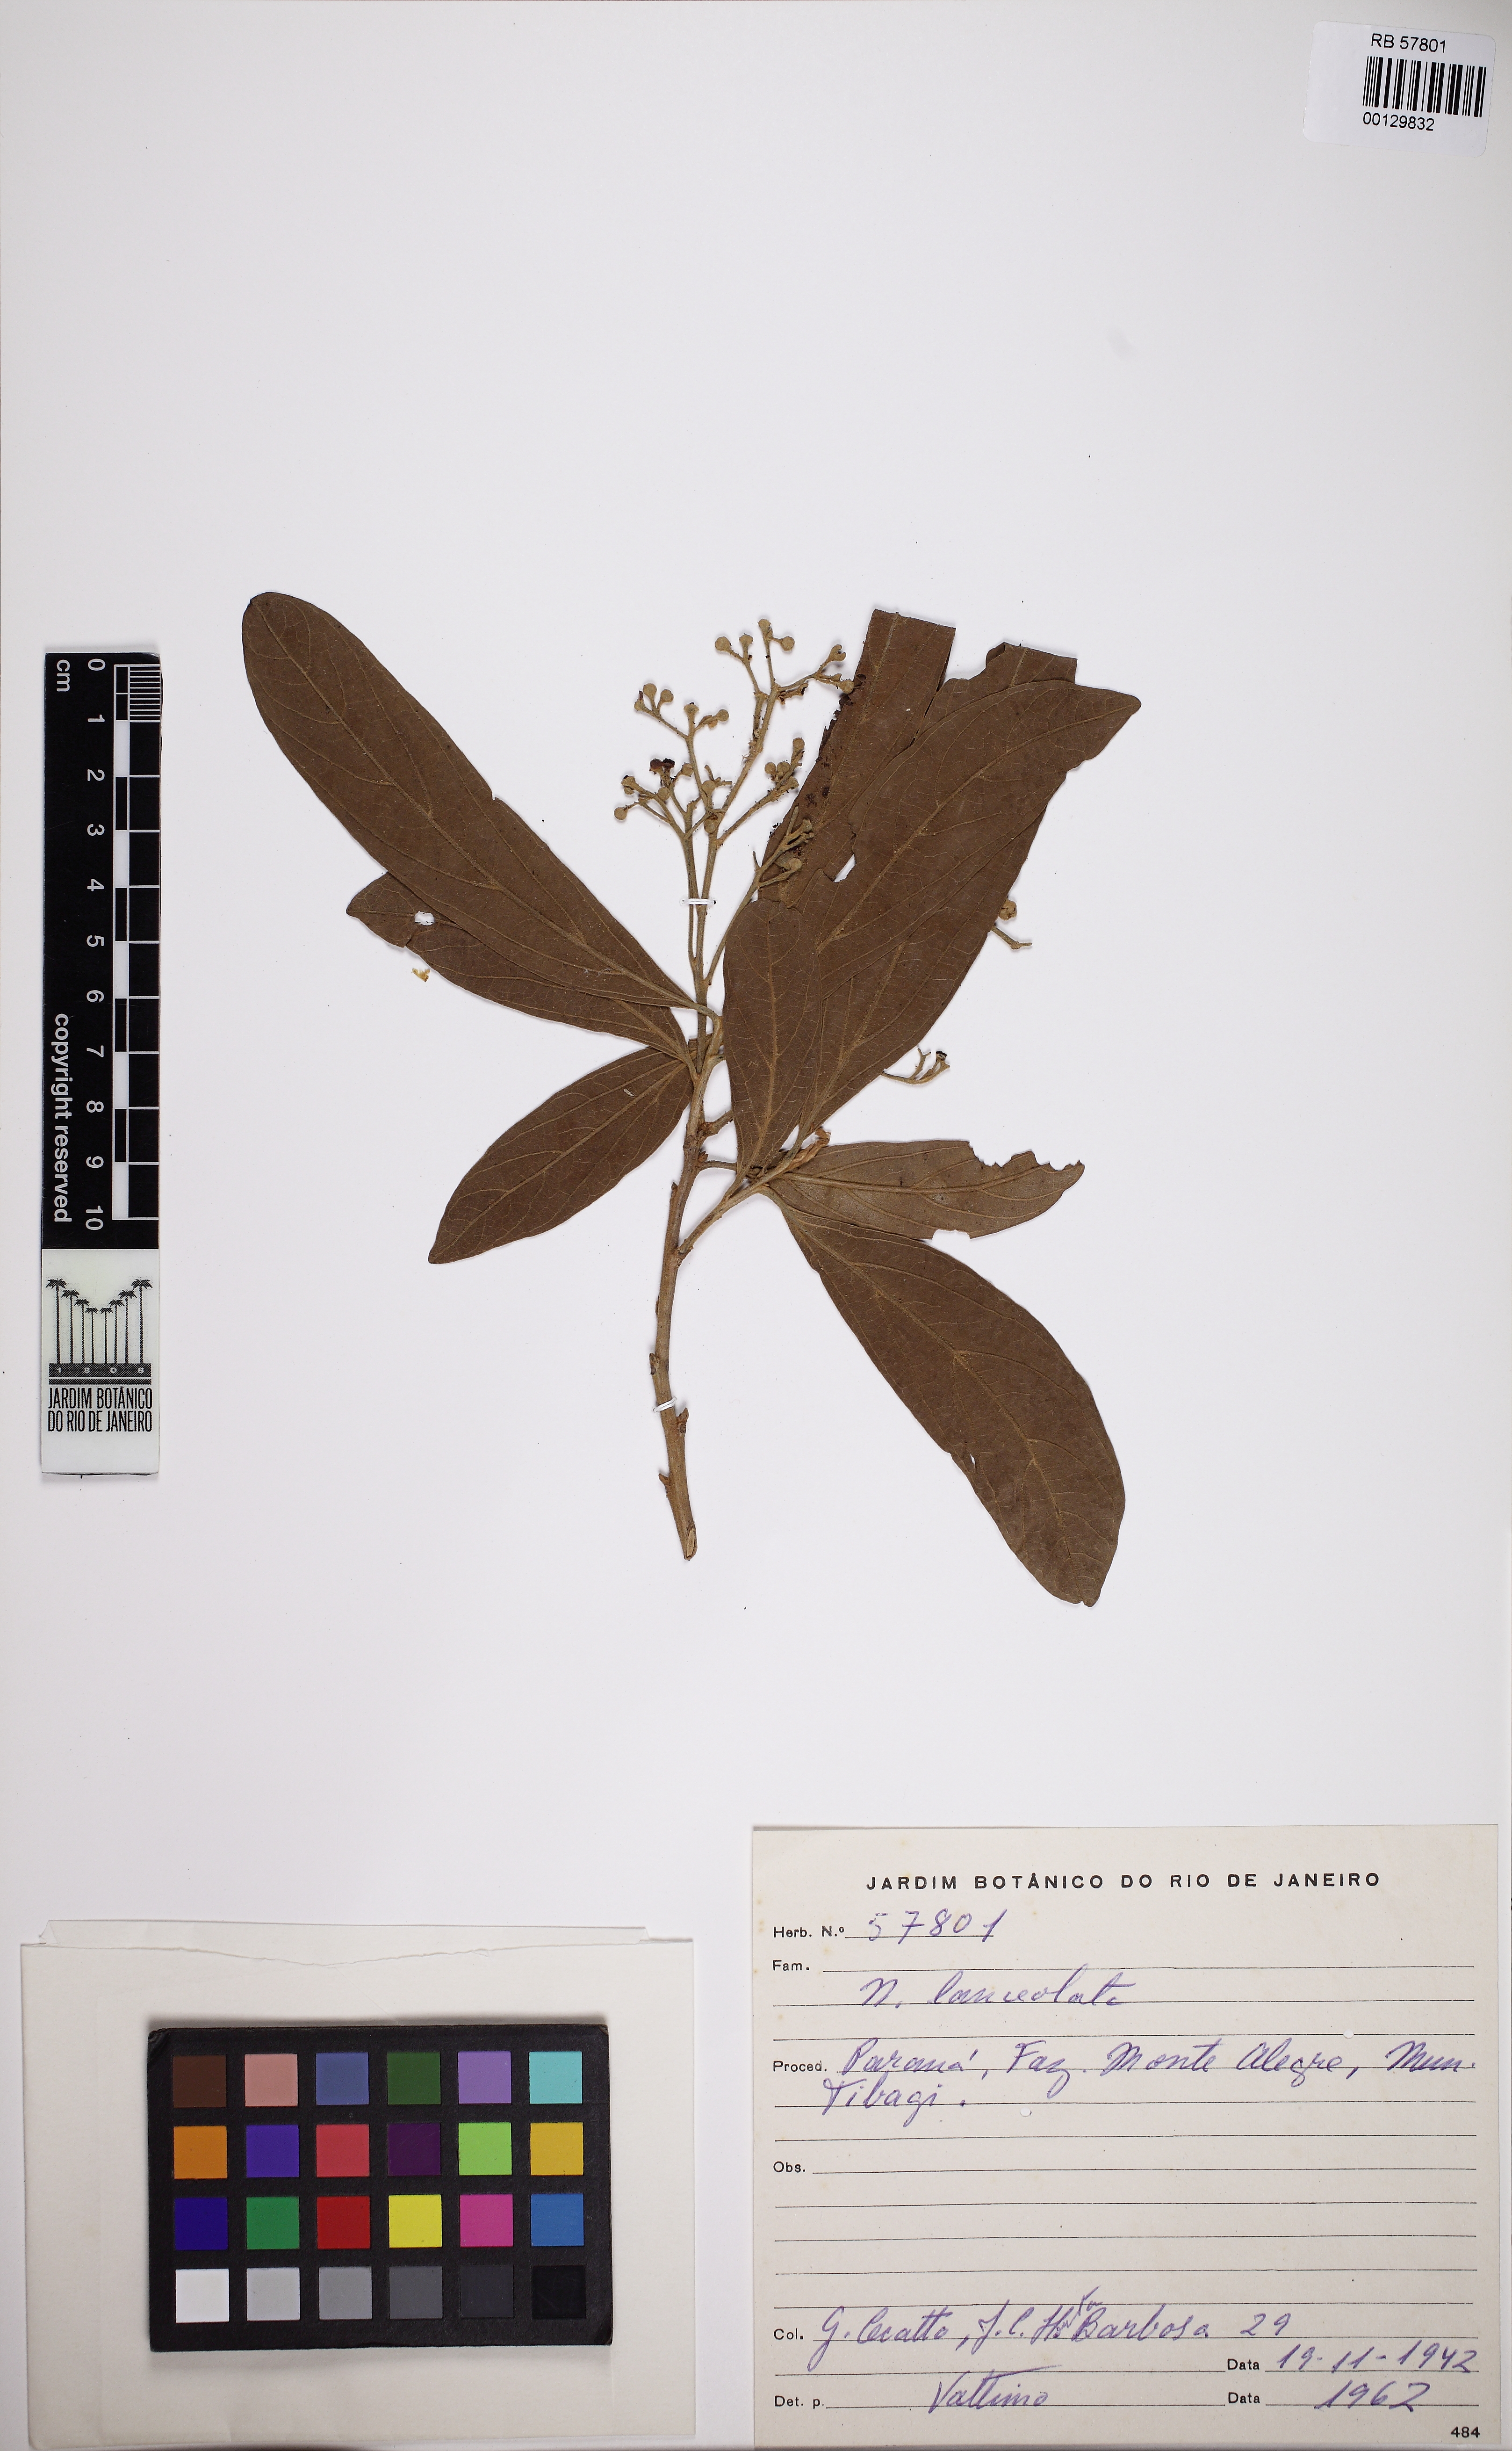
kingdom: Plantae
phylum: Tracheophyta
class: Magnoliopsida
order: Laurales
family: Lauraceae
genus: Nectandra
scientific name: Nectandra lanceolata
